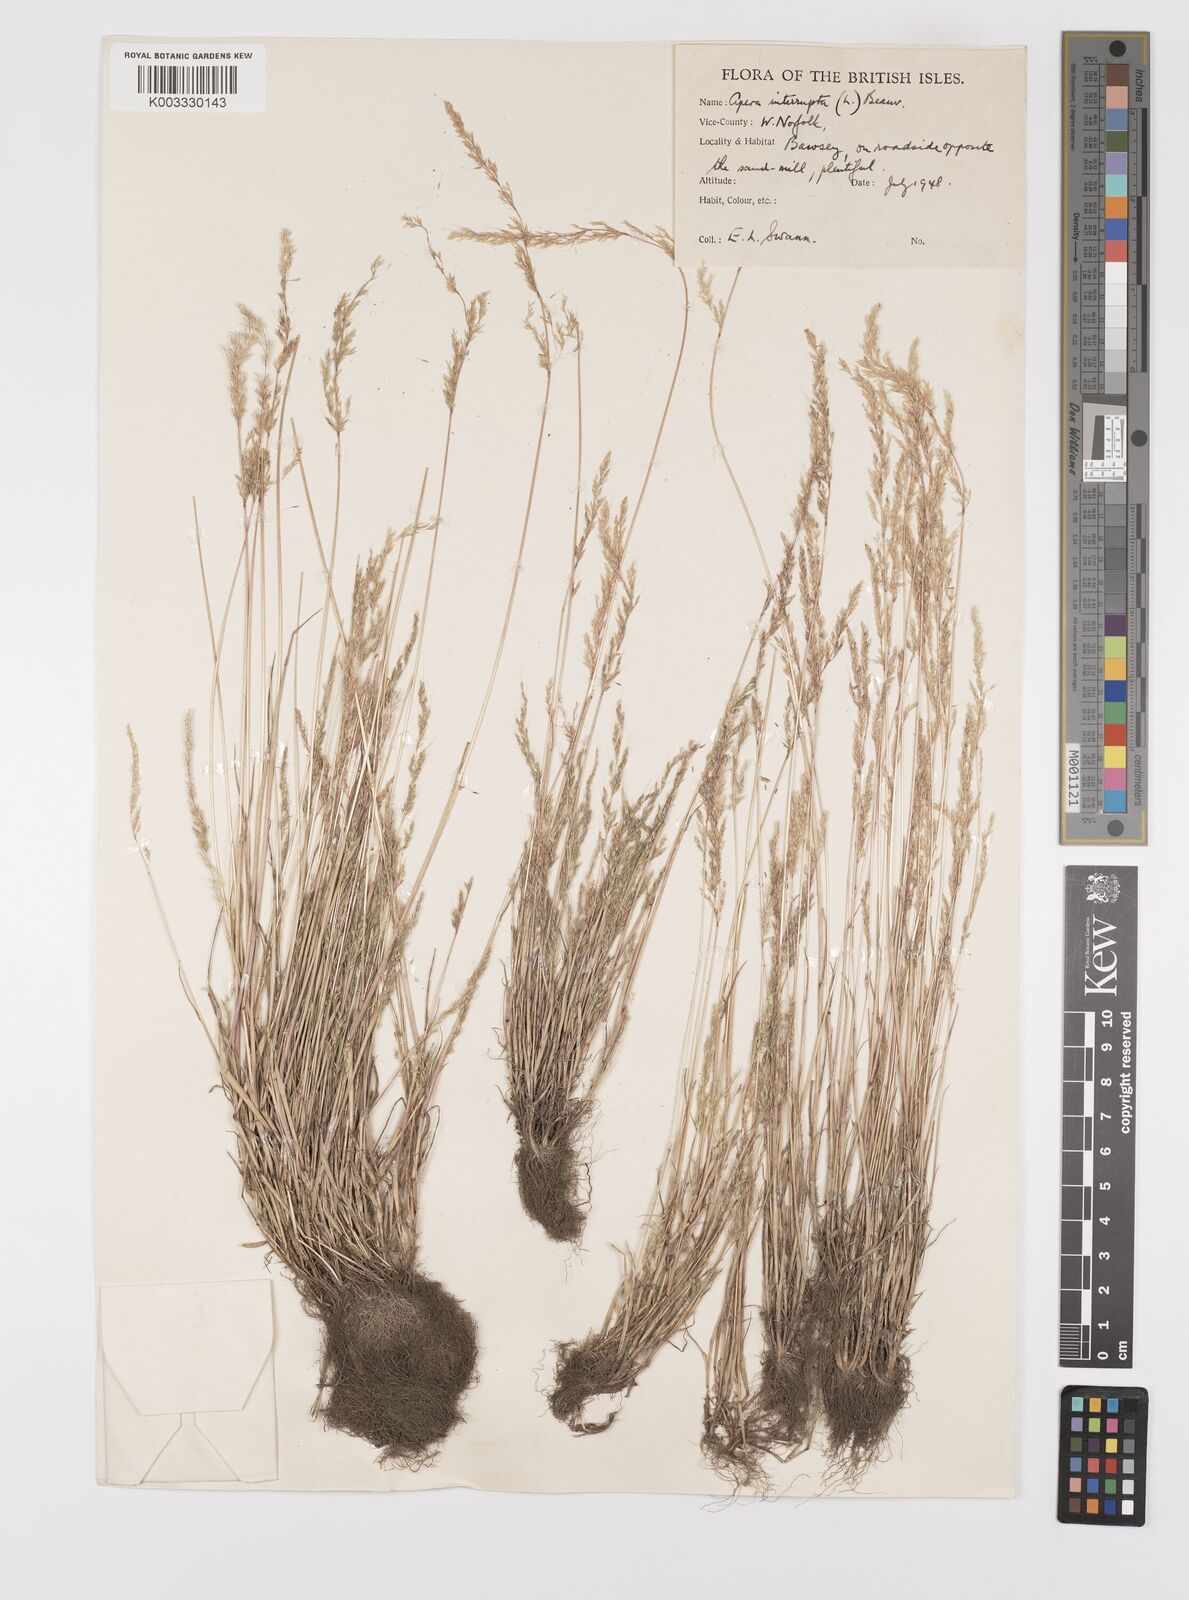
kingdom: Plantae
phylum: Tracheophyta
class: Liliopsida
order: Poales
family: Poaceae
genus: Apera
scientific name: Apera interrupta
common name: Dense silky-bent
